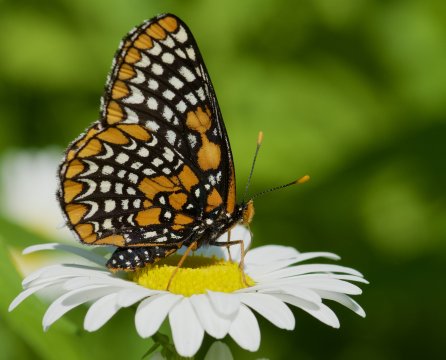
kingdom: Animalia
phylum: Arthropoda
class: Insecta
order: Lepidoptera
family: Nymphalidae
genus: Euphydryas
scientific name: Euphydryas phaeton
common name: Baltimore Checkerspot
